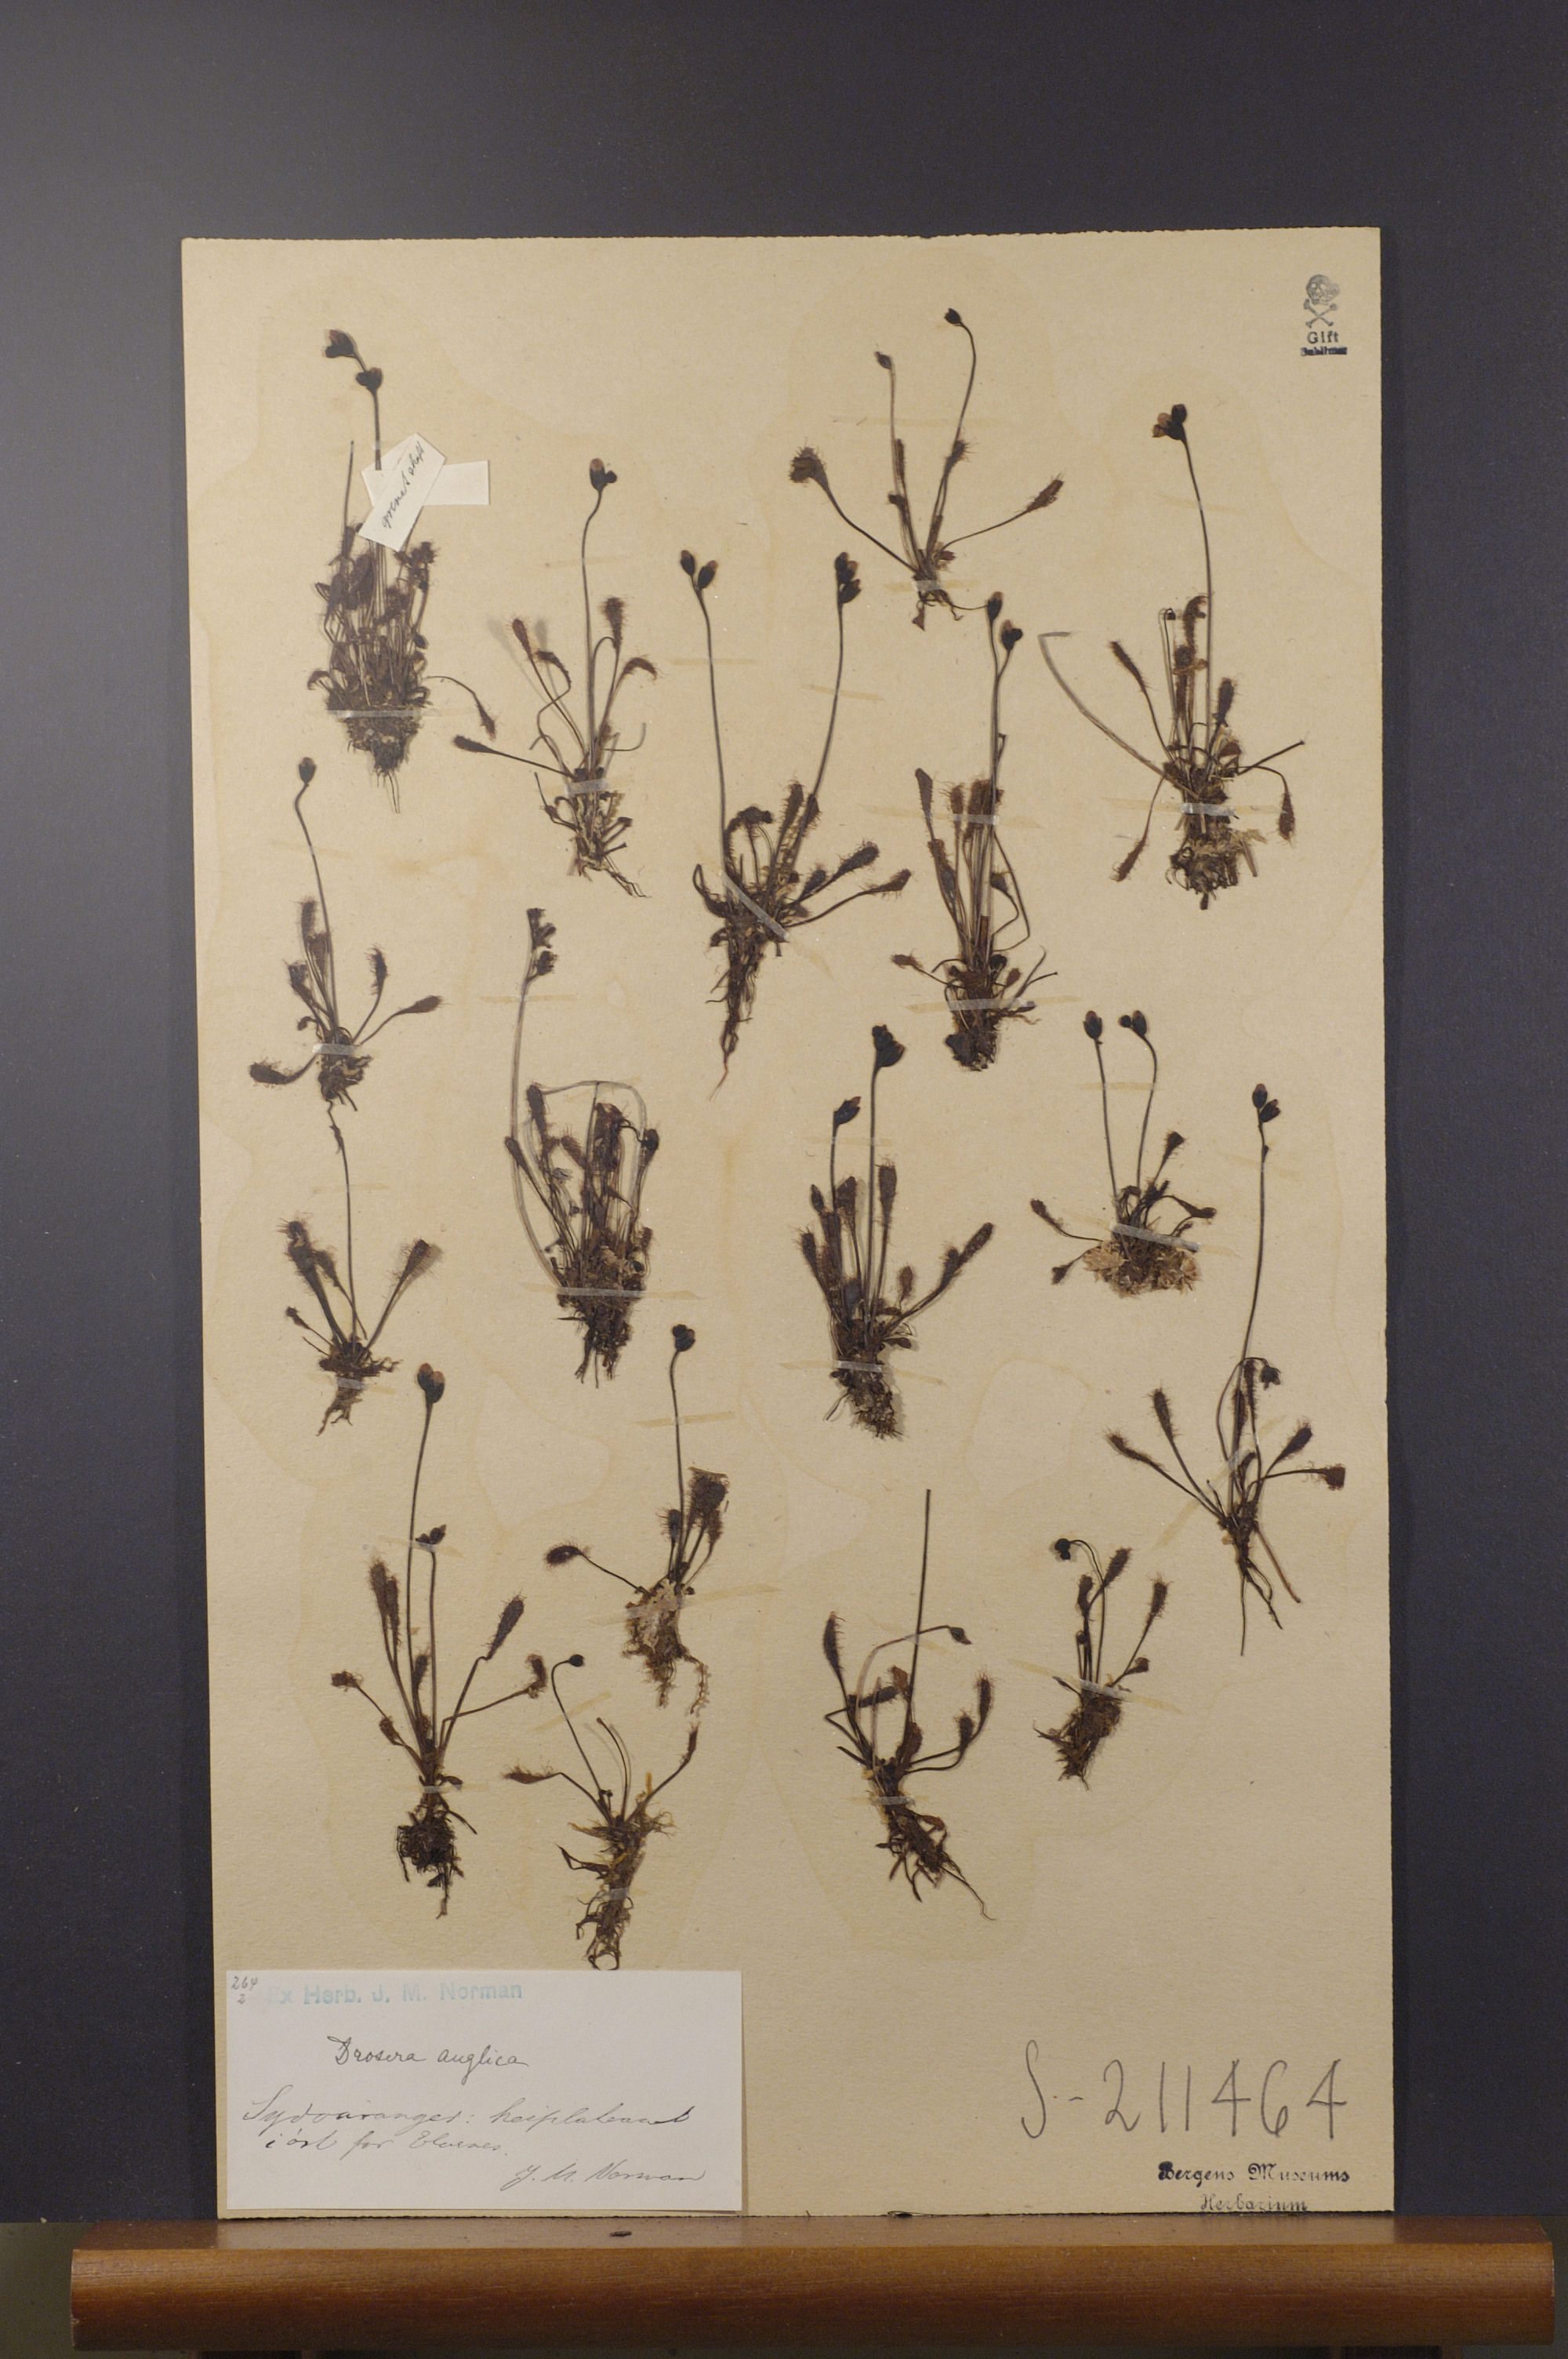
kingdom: Plantae
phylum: Tracheophyta
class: Magnoliopsida
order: Caryophyllales
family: Droseraceae
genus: Drosera
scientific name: Drosera anglica
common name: Great sundew
